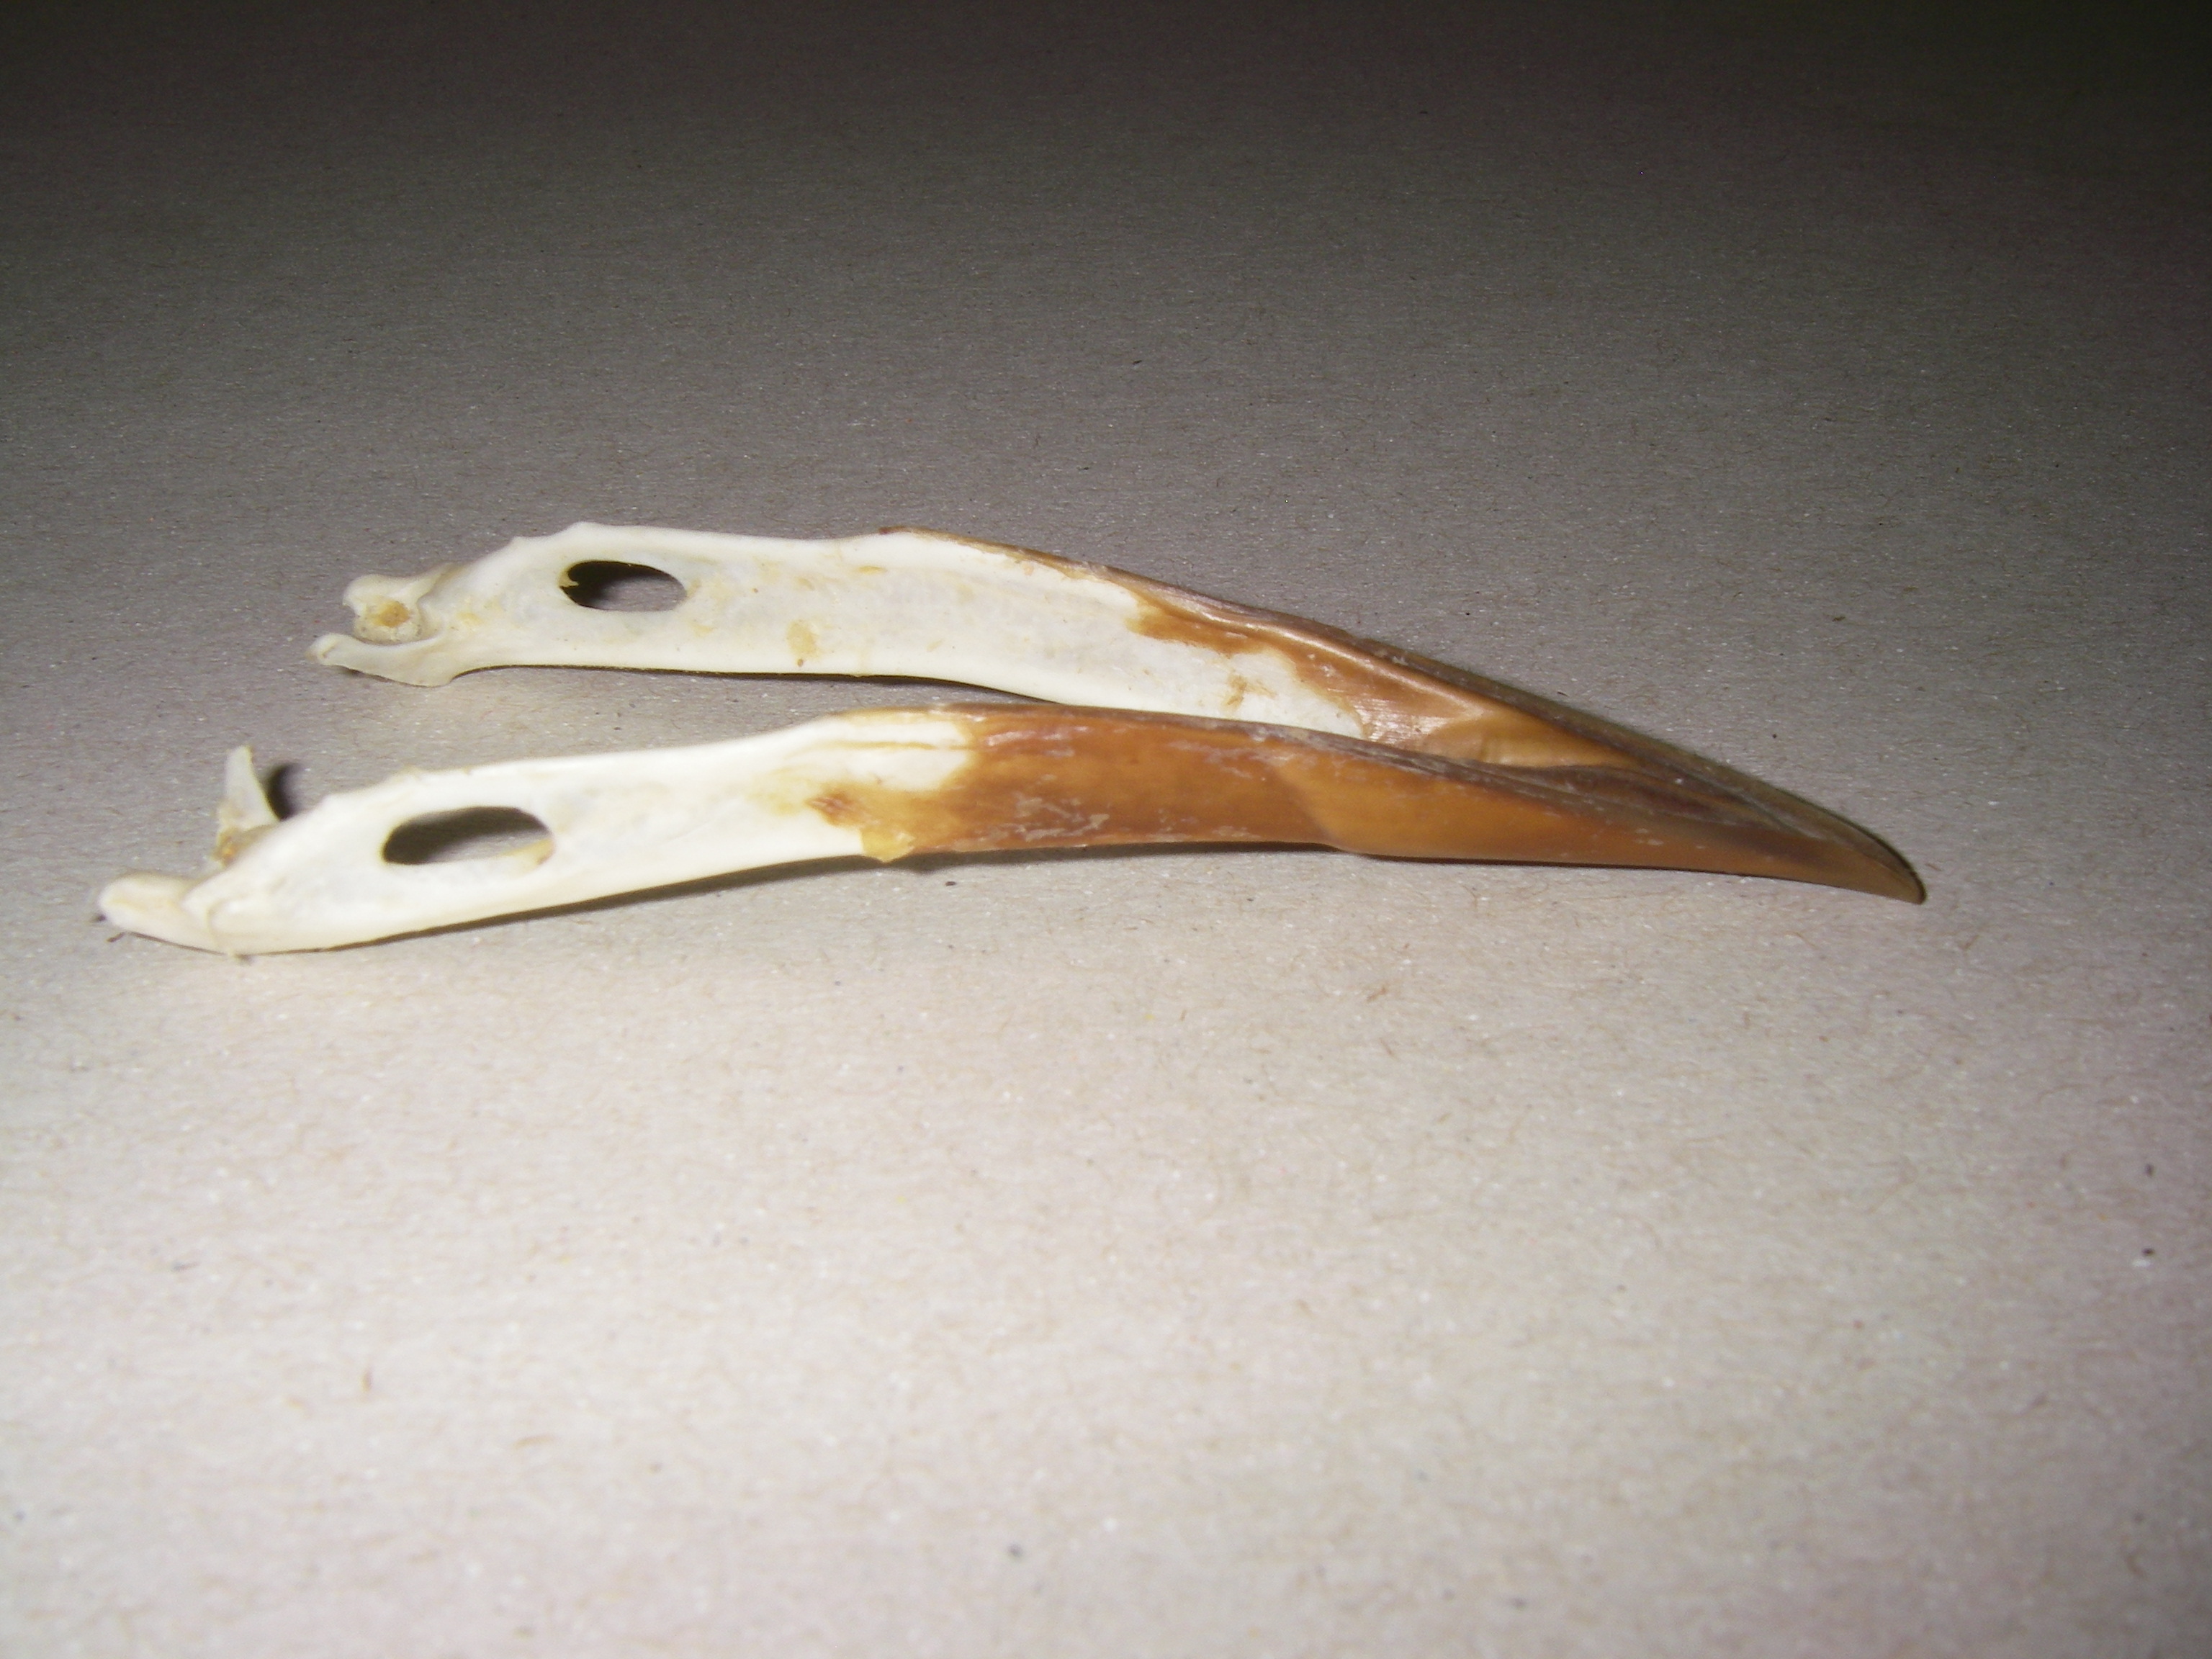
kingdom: Animalia
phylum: Chordata
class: Aves
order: Passeriformes
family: Corvidae
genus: Corvus
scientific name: Corvus frugilegus
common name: Rook
